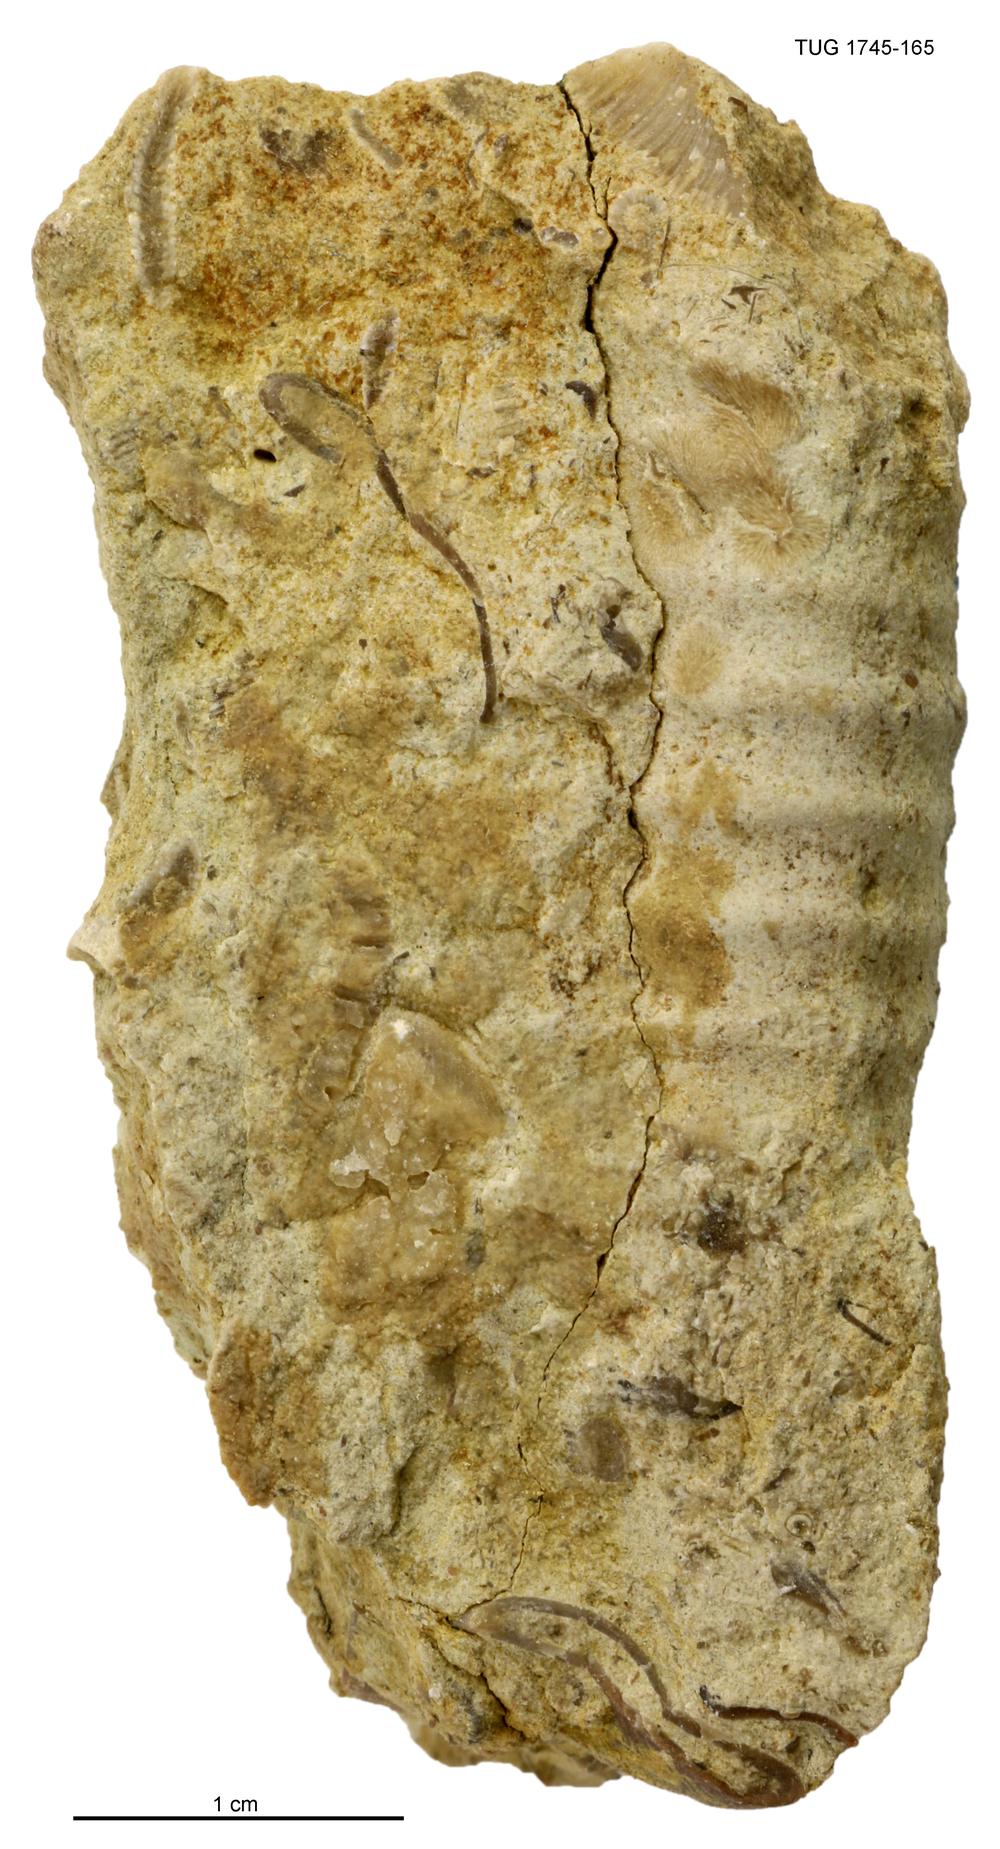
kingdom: Animalia
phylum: Mollusca
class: Cephalopoda
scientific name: Cephalopoda
